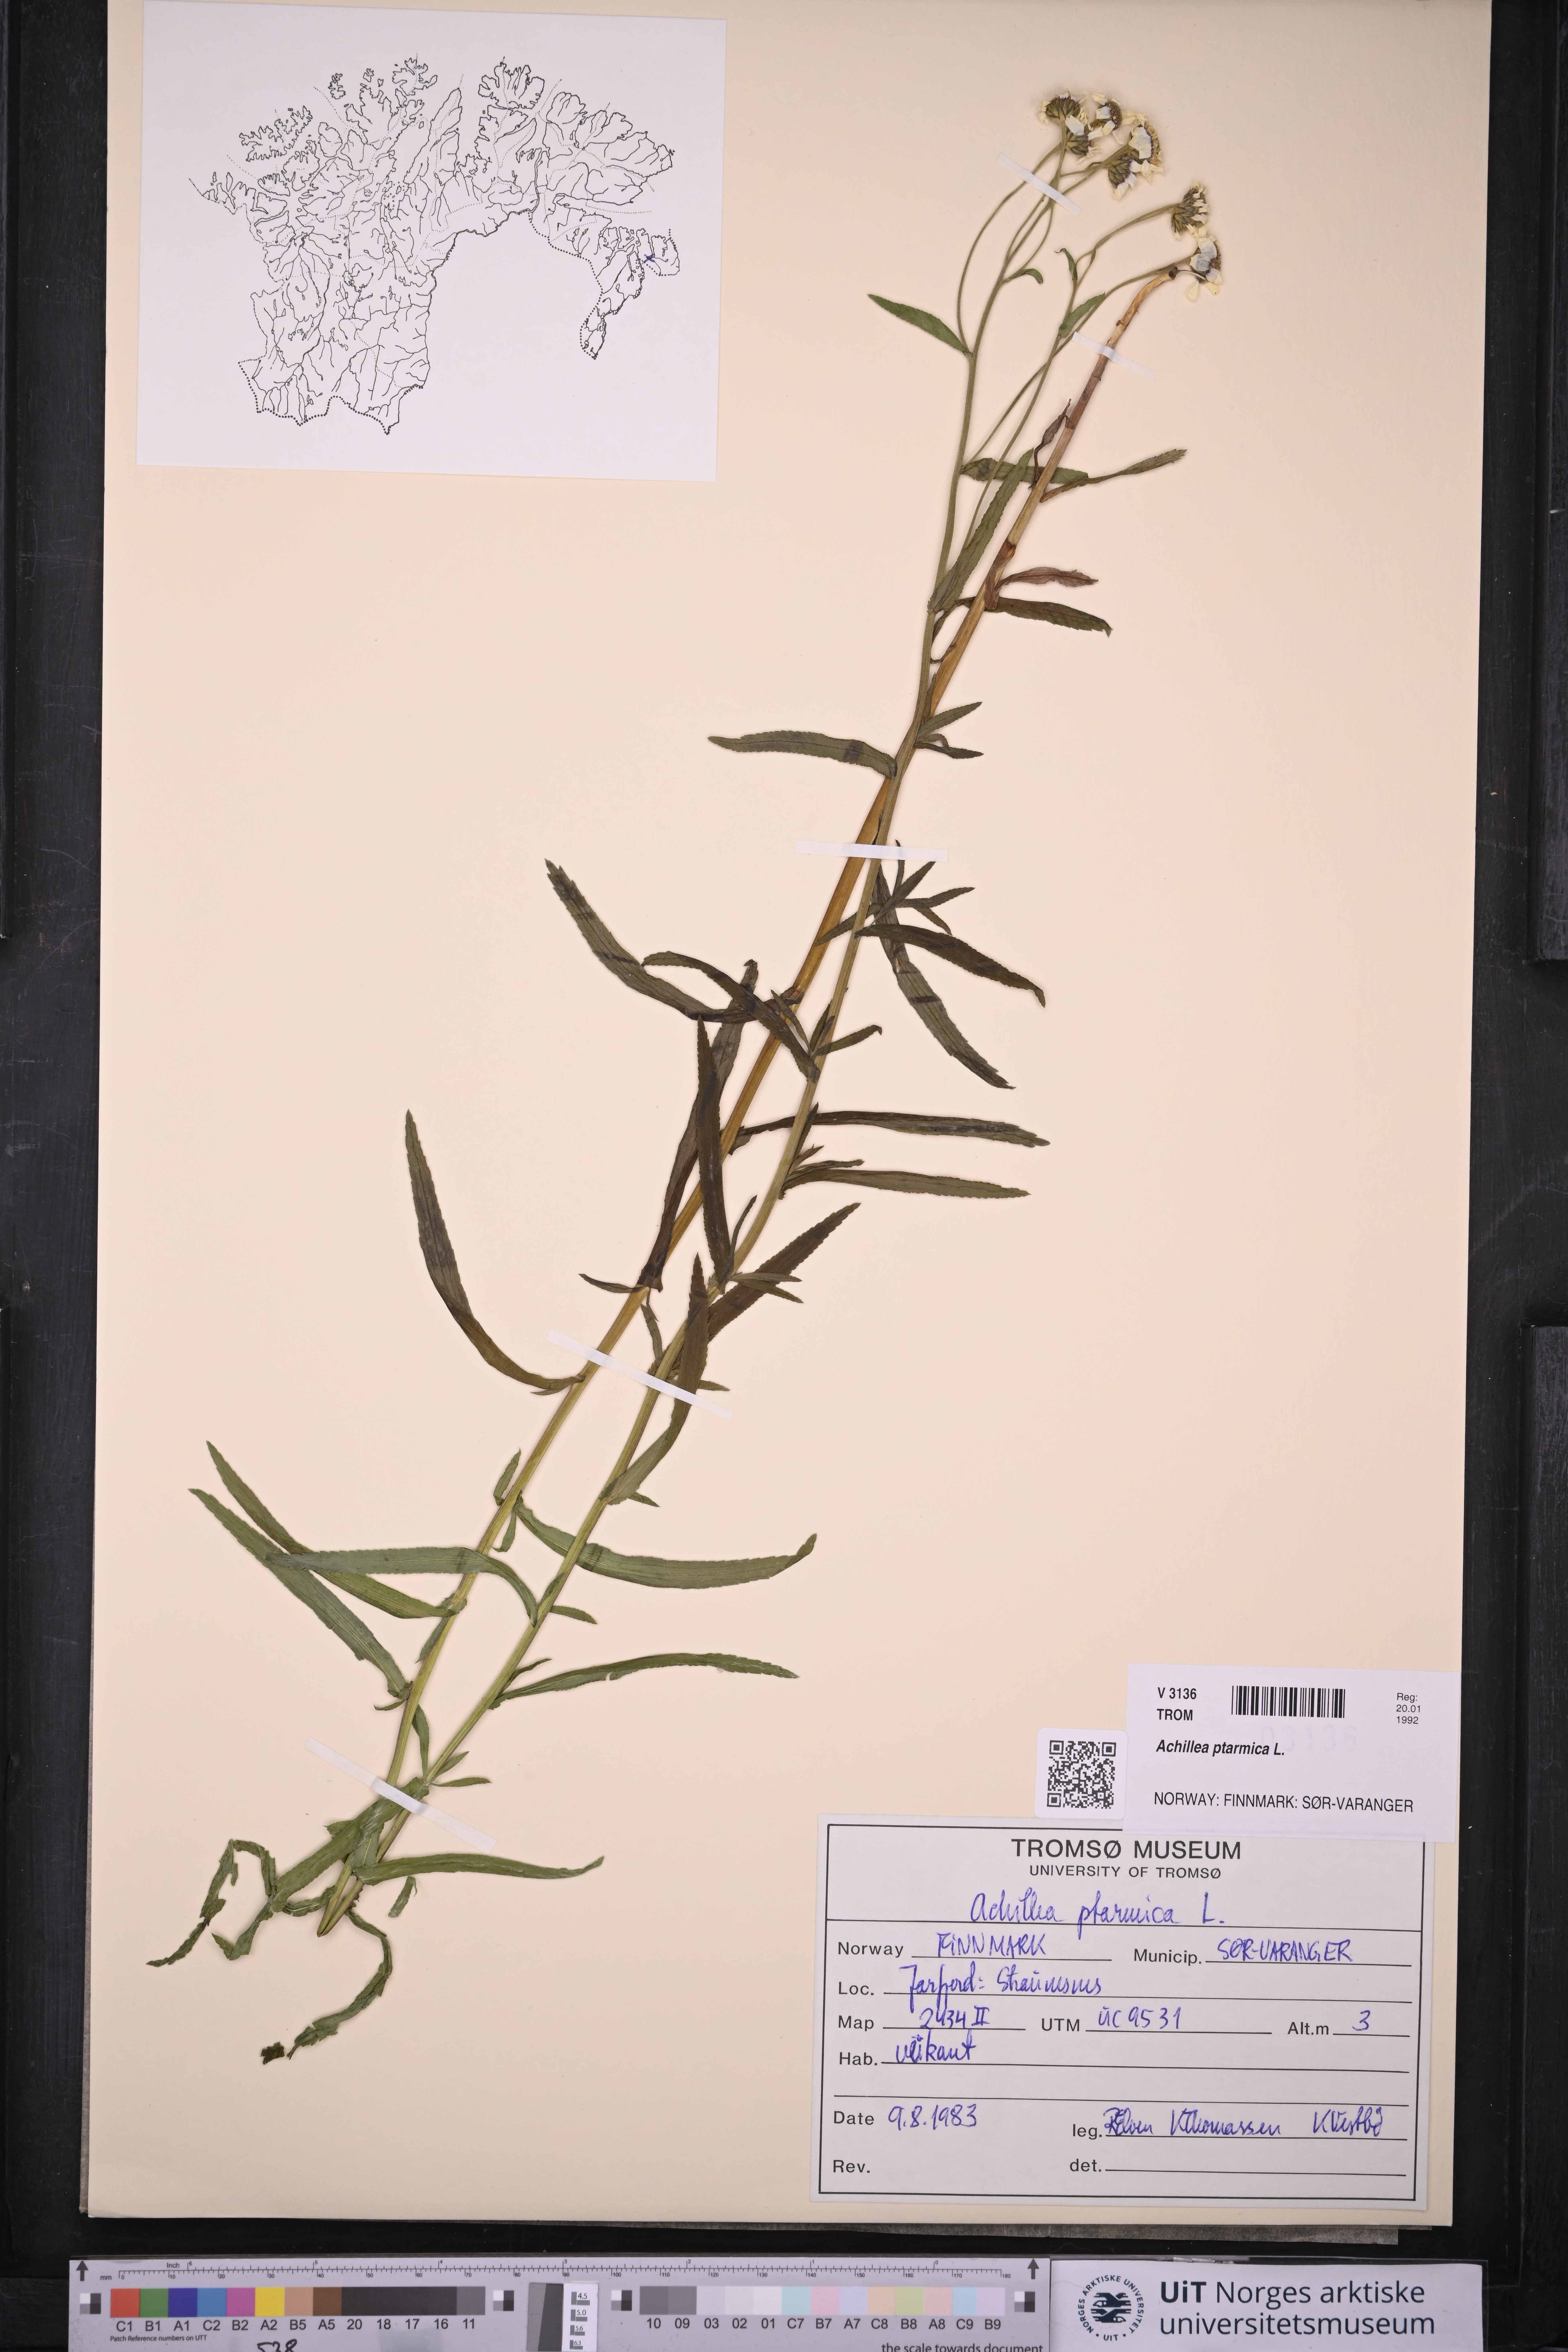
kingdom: Plantae
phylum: Tracheophyta
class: Magnoliopsida
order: Asterales
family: Asteraceae
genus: Achillea
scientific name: Achillea ptarmica
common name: Sneezeweed
